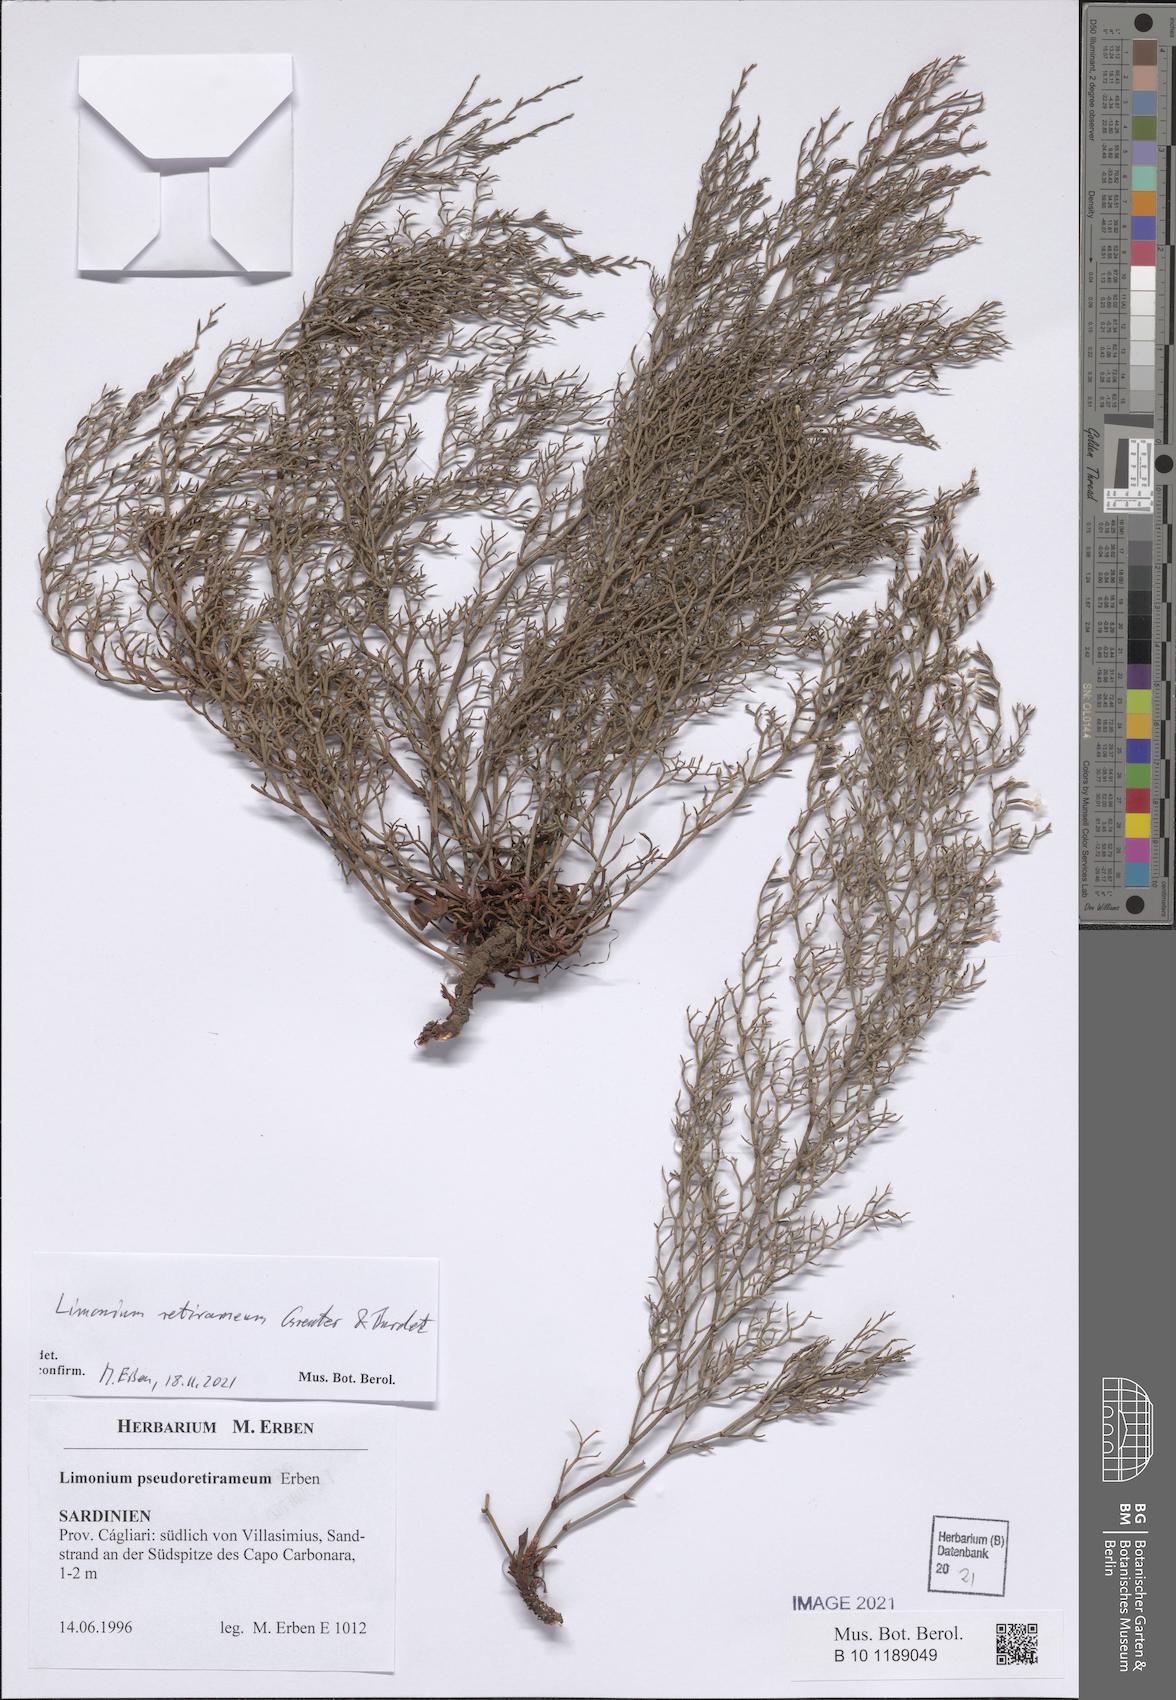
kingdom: Plantae
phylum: Tracheophyta
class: Magnoliopsida
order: Caryophyllales
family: Plumbaginaceae
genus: Limonium
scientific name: Limonium retirameum
